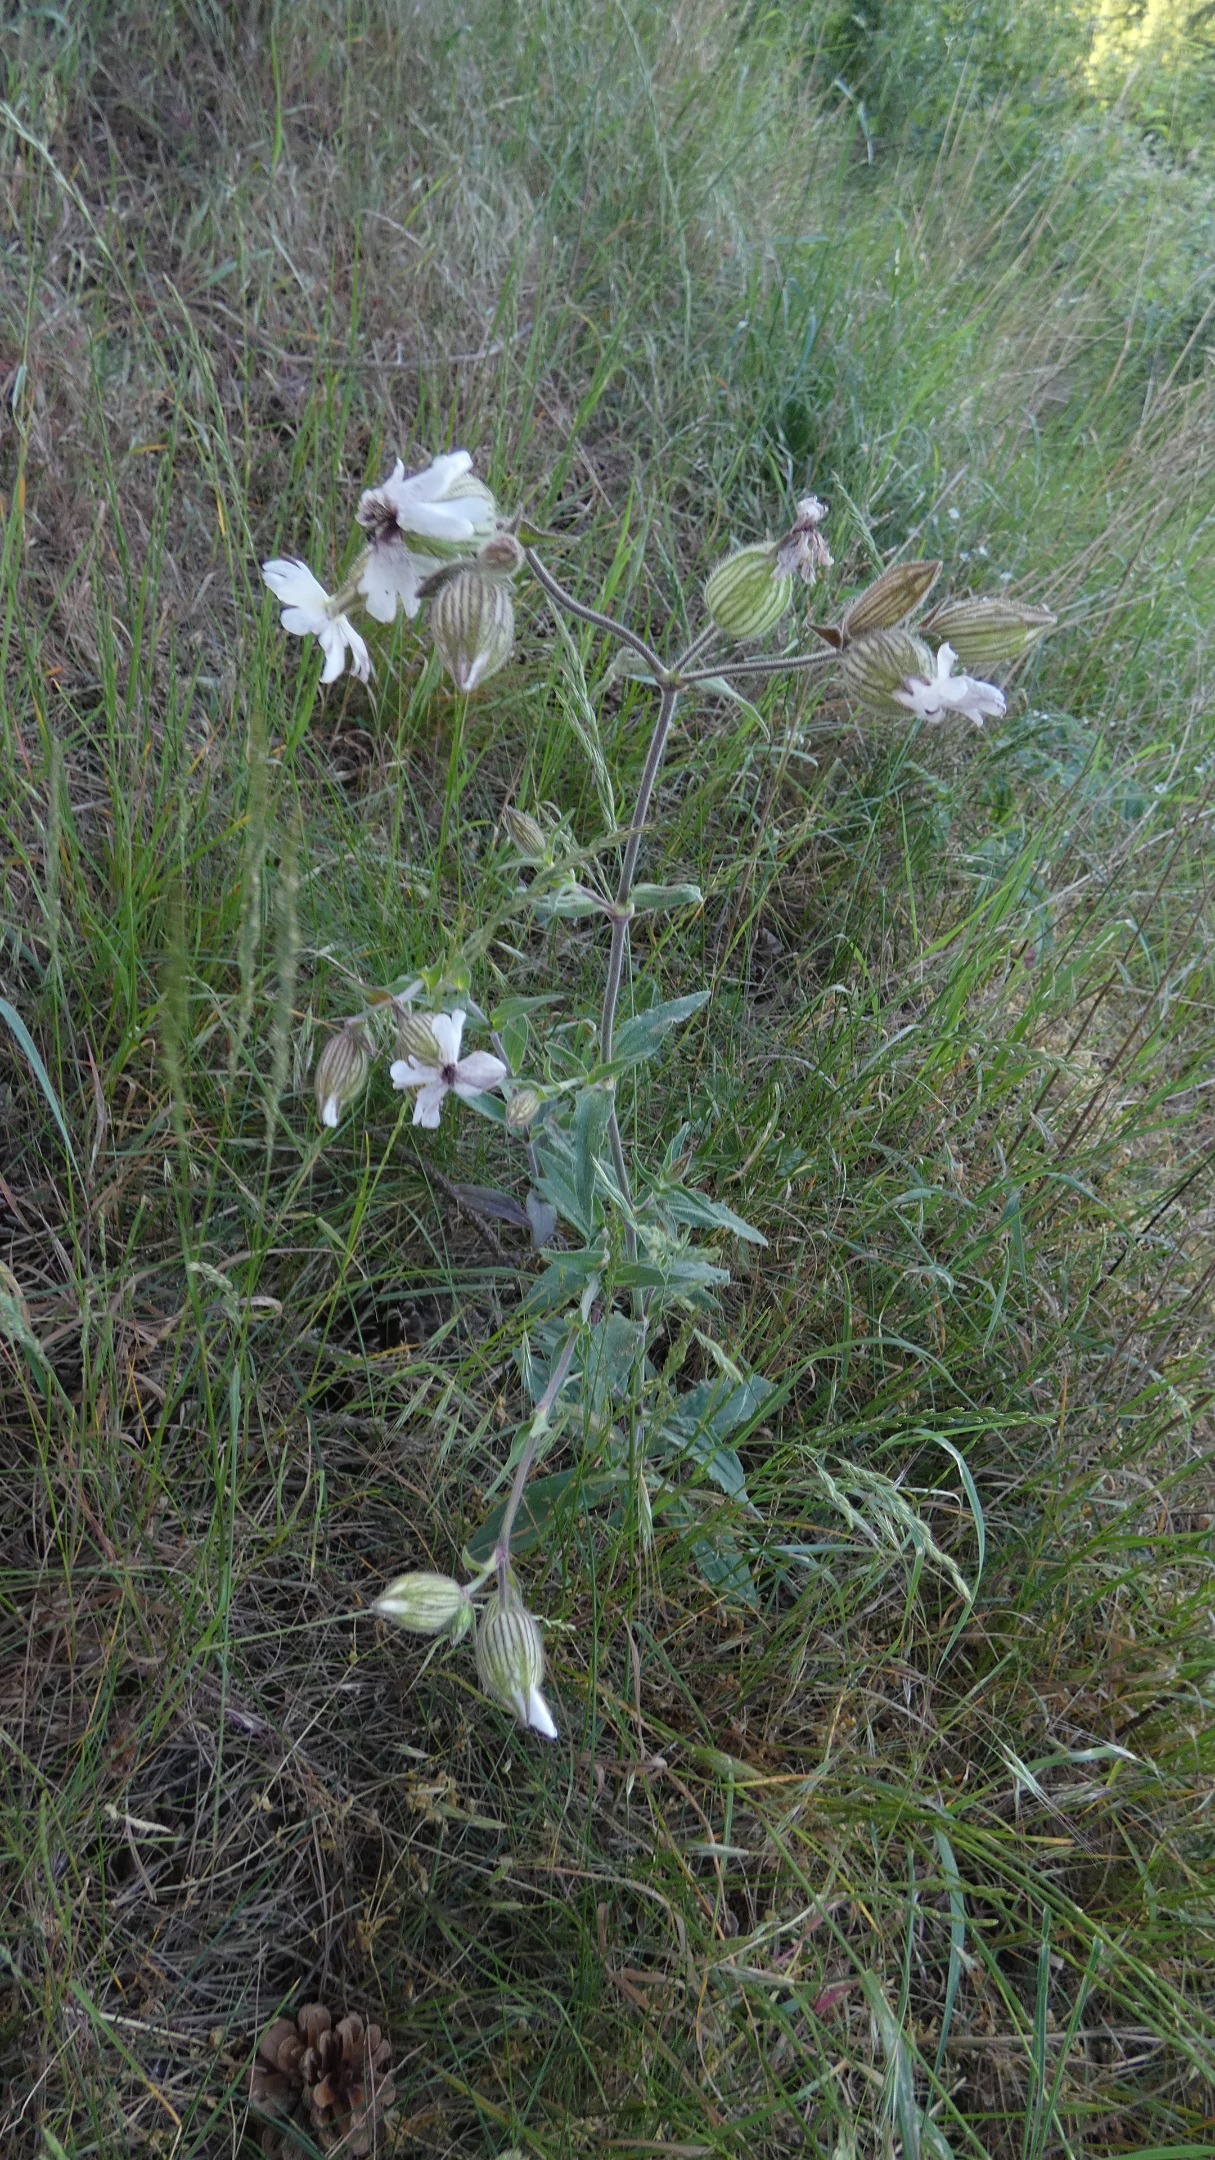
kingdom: Plantae
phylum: Tracheophyta
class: Magnoliopsida
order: Caryophyllales
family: Caryophyllaceae
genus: Silene
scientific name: Silene latifolia
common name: Aftenpragtstjerne
